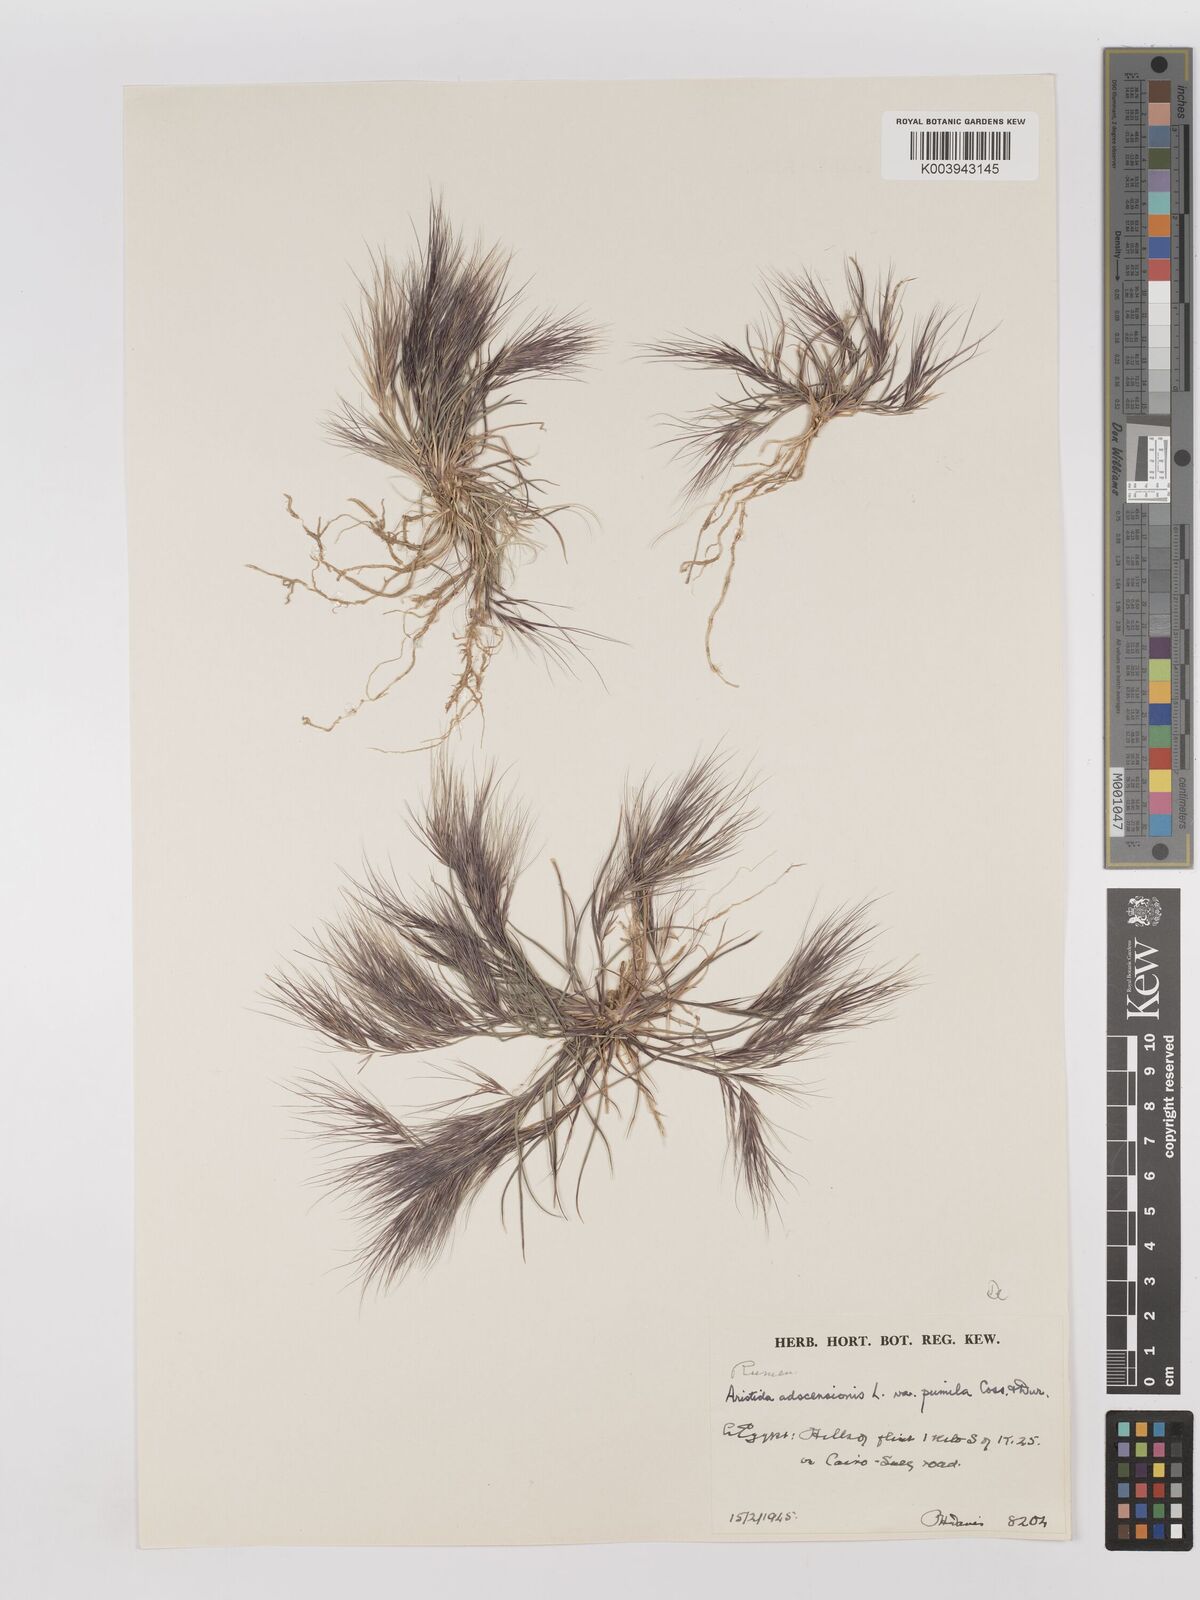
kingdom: Plantae
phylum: Tracheophyta
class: Liliopsida
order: Poales
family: Poaceae
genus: Aristida
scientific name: Aristida adscensionis
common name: Sixweeks threeawn
